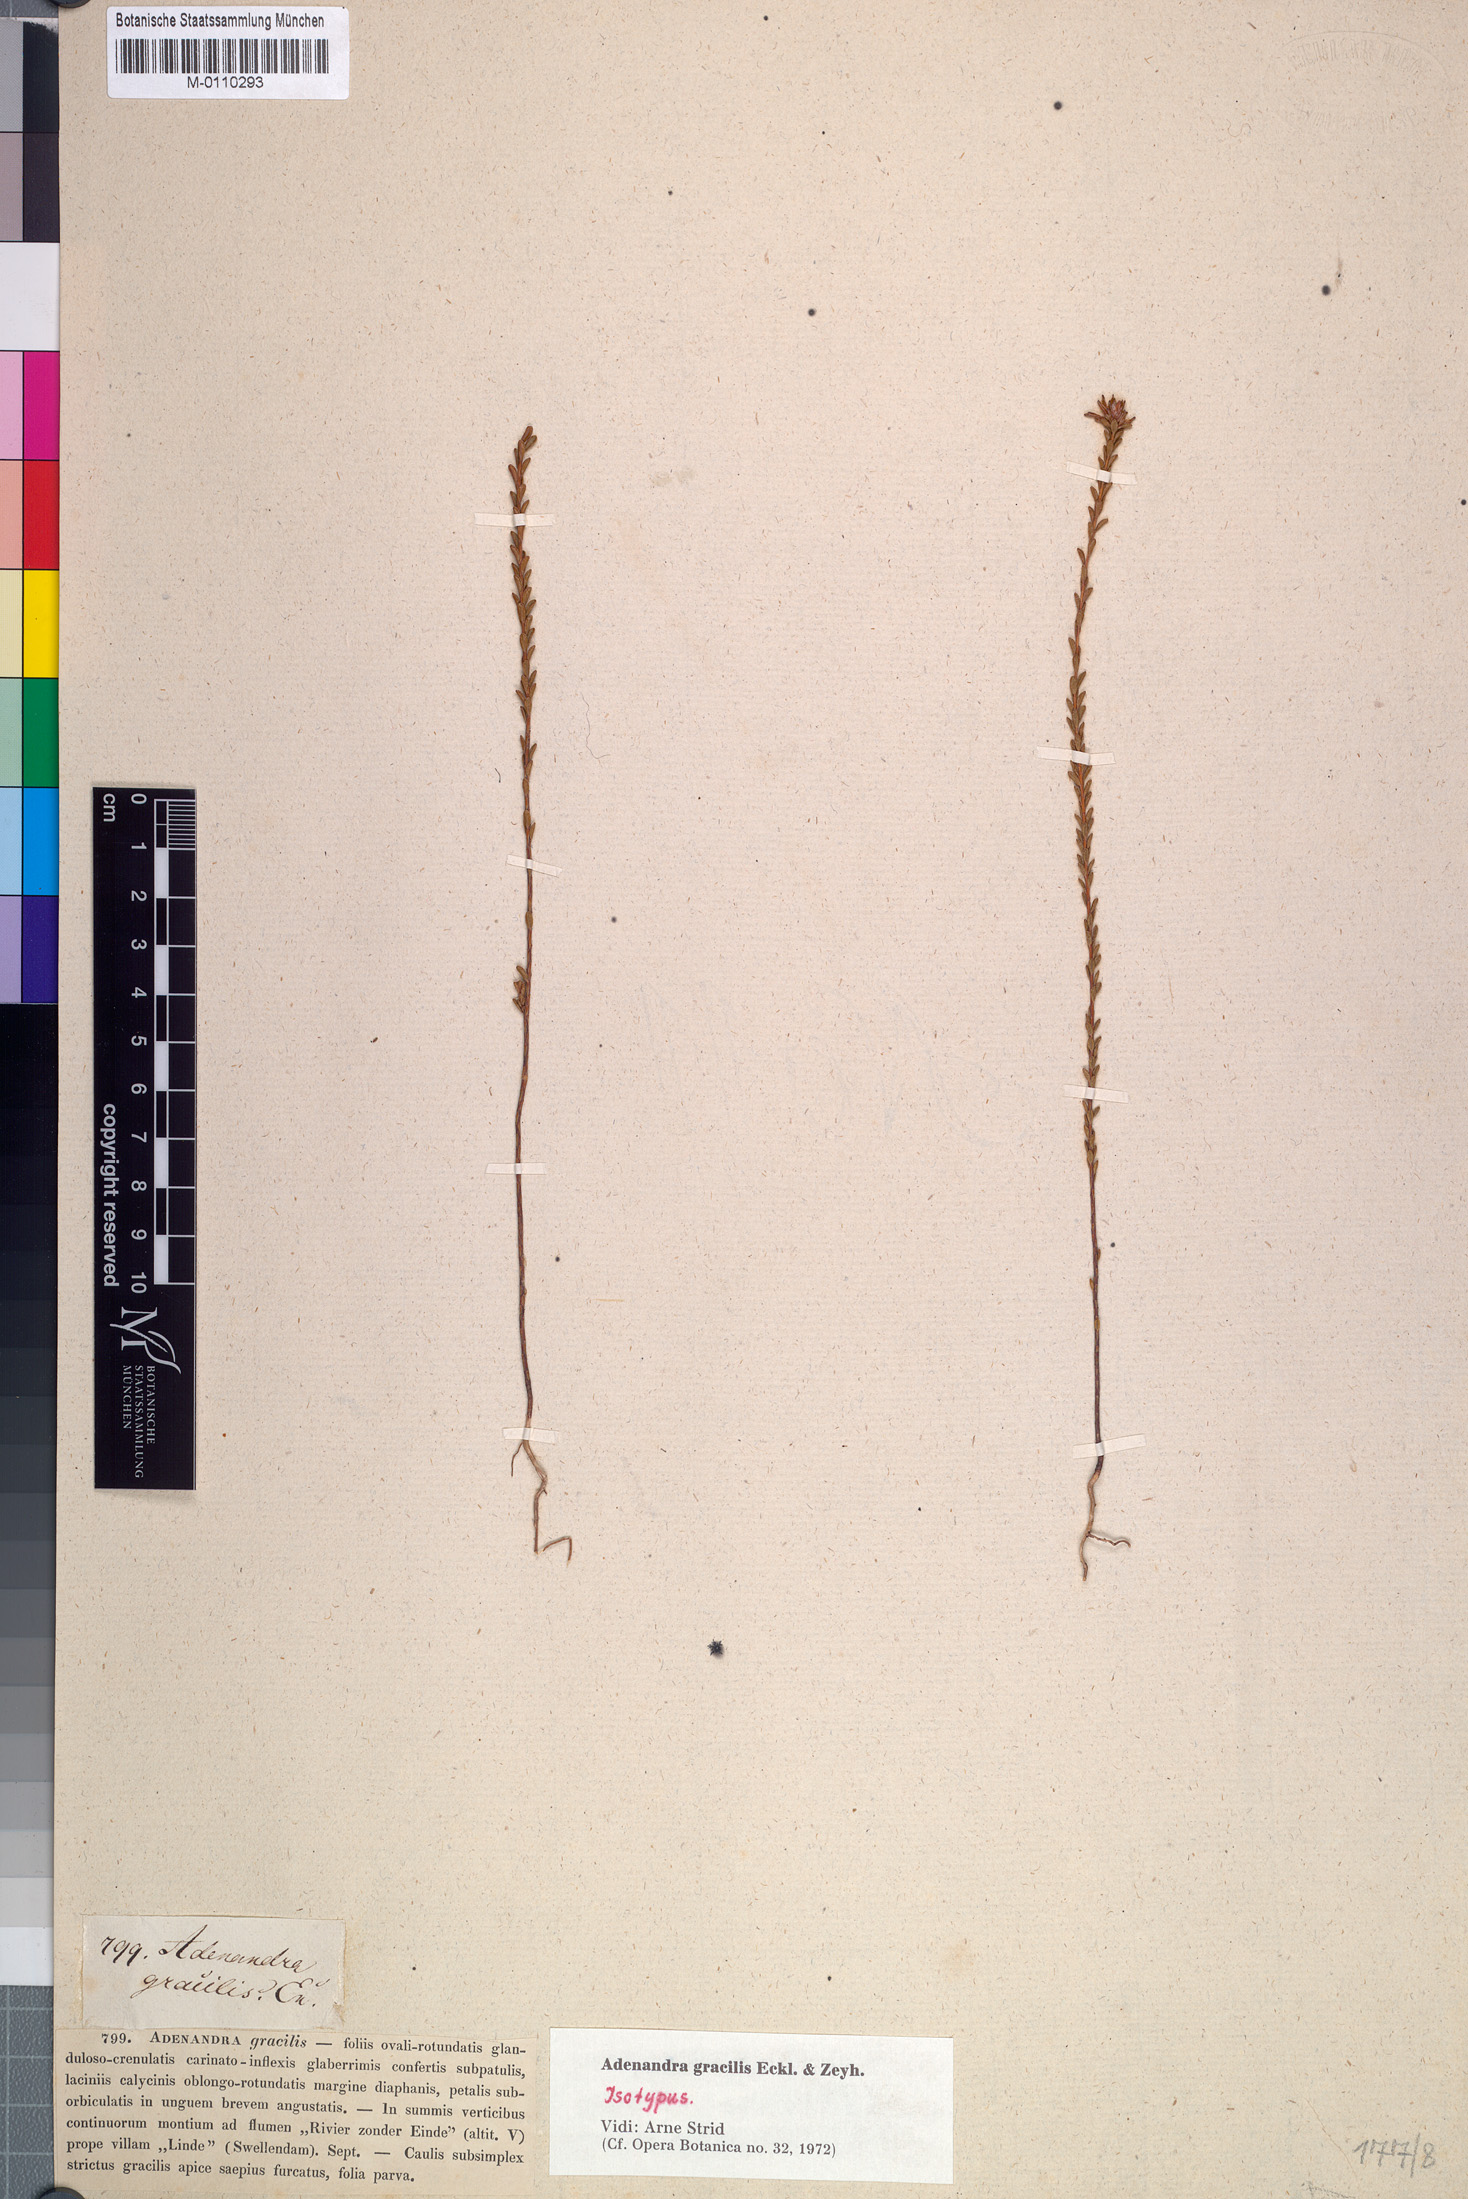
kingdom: Plantae
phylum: Tracheophyta
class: Magnoliopsida
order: Sapindales
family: Rutaceae
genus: Adenandra
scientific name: Adenandra gracilis
